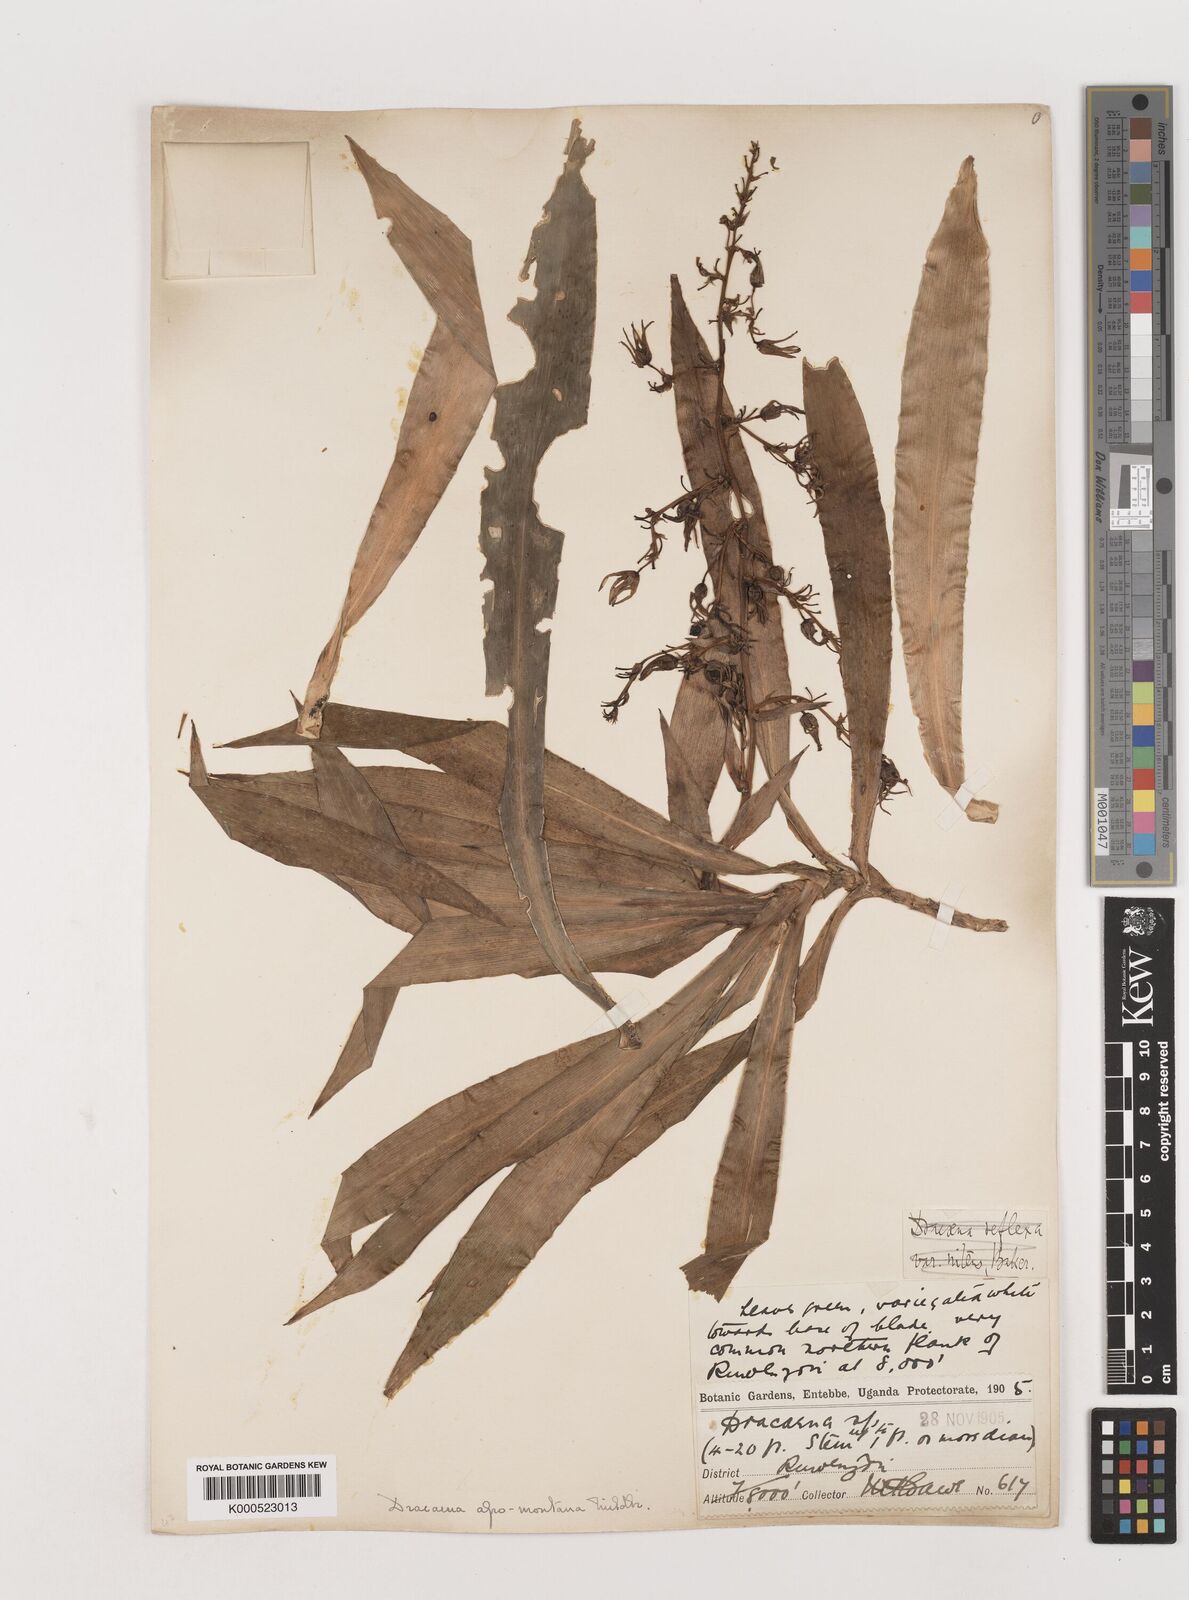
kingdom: Plantae
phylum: Tracheophyta
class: Liliopsida
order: Asparagales
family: Asparagaceae
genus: Dracaena
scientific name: Dracaena afromontana
